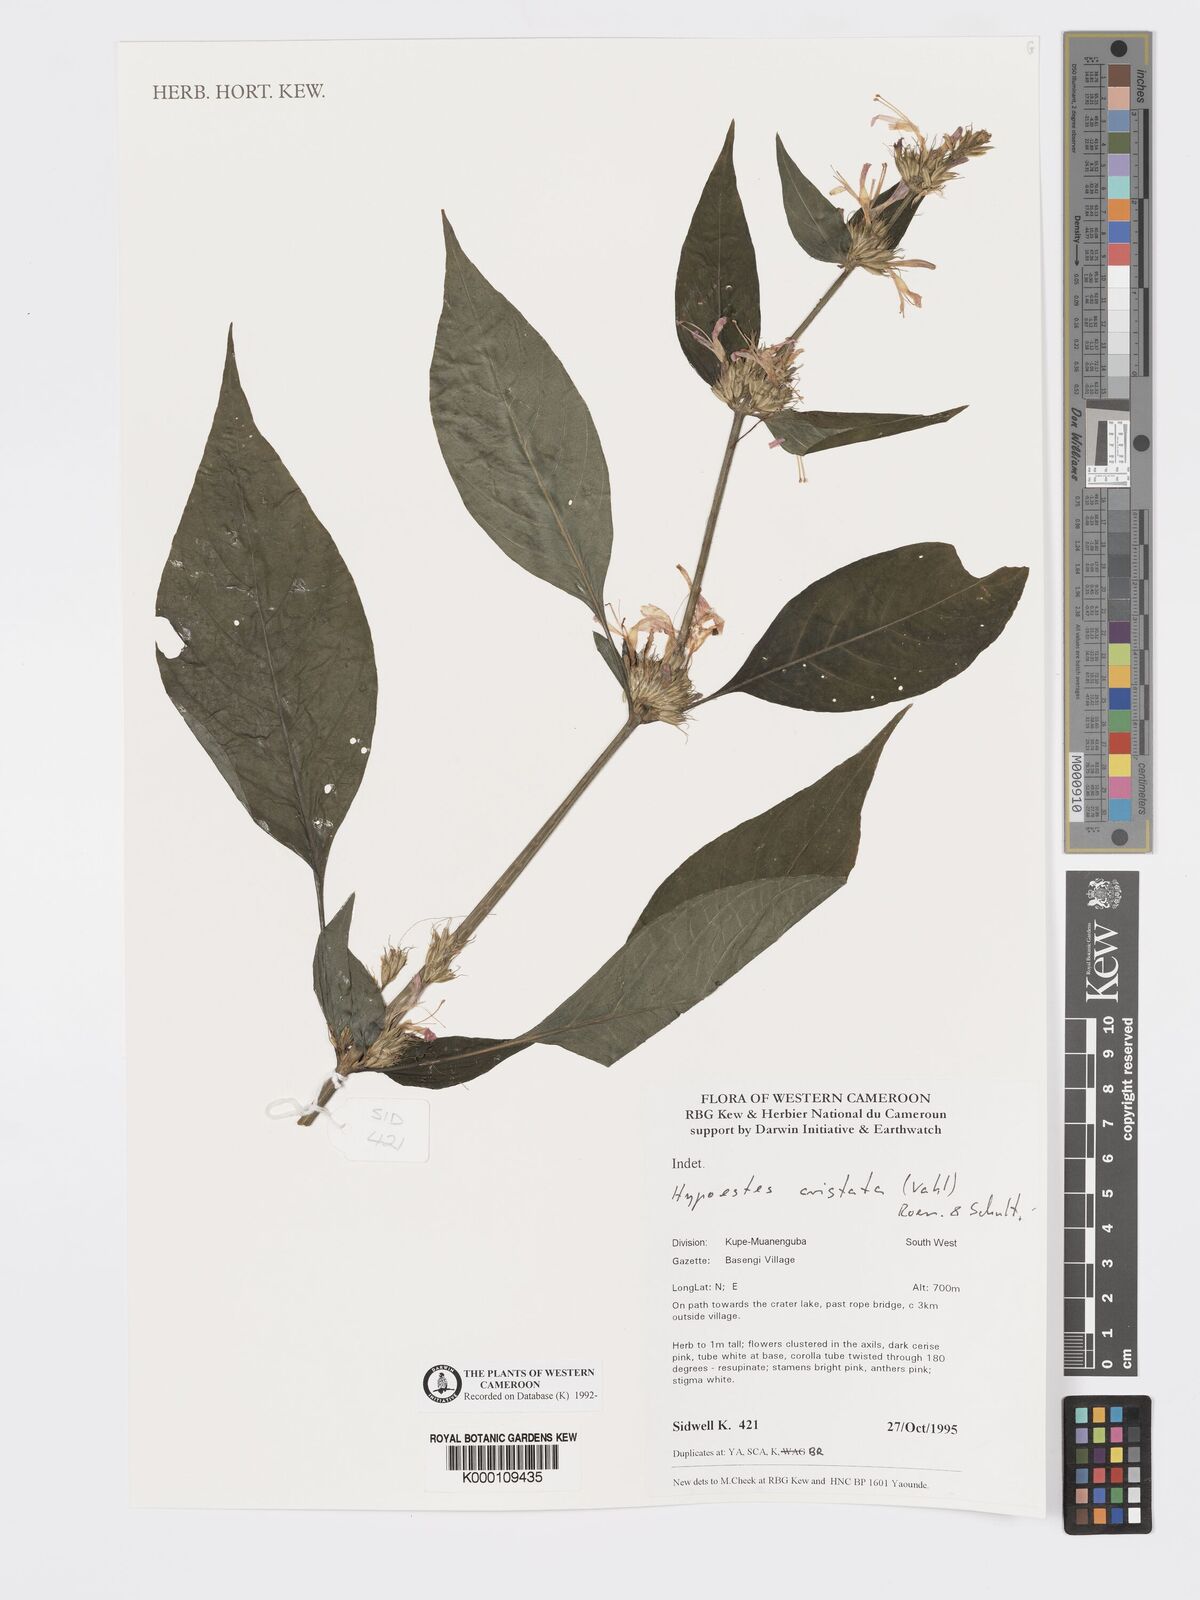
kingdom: Plantae
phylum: Tracheophyta
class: Magnoliopsida
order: Lamiales
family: Acanthaceae
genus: Hypoestes
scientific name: Hypoestes aristata
